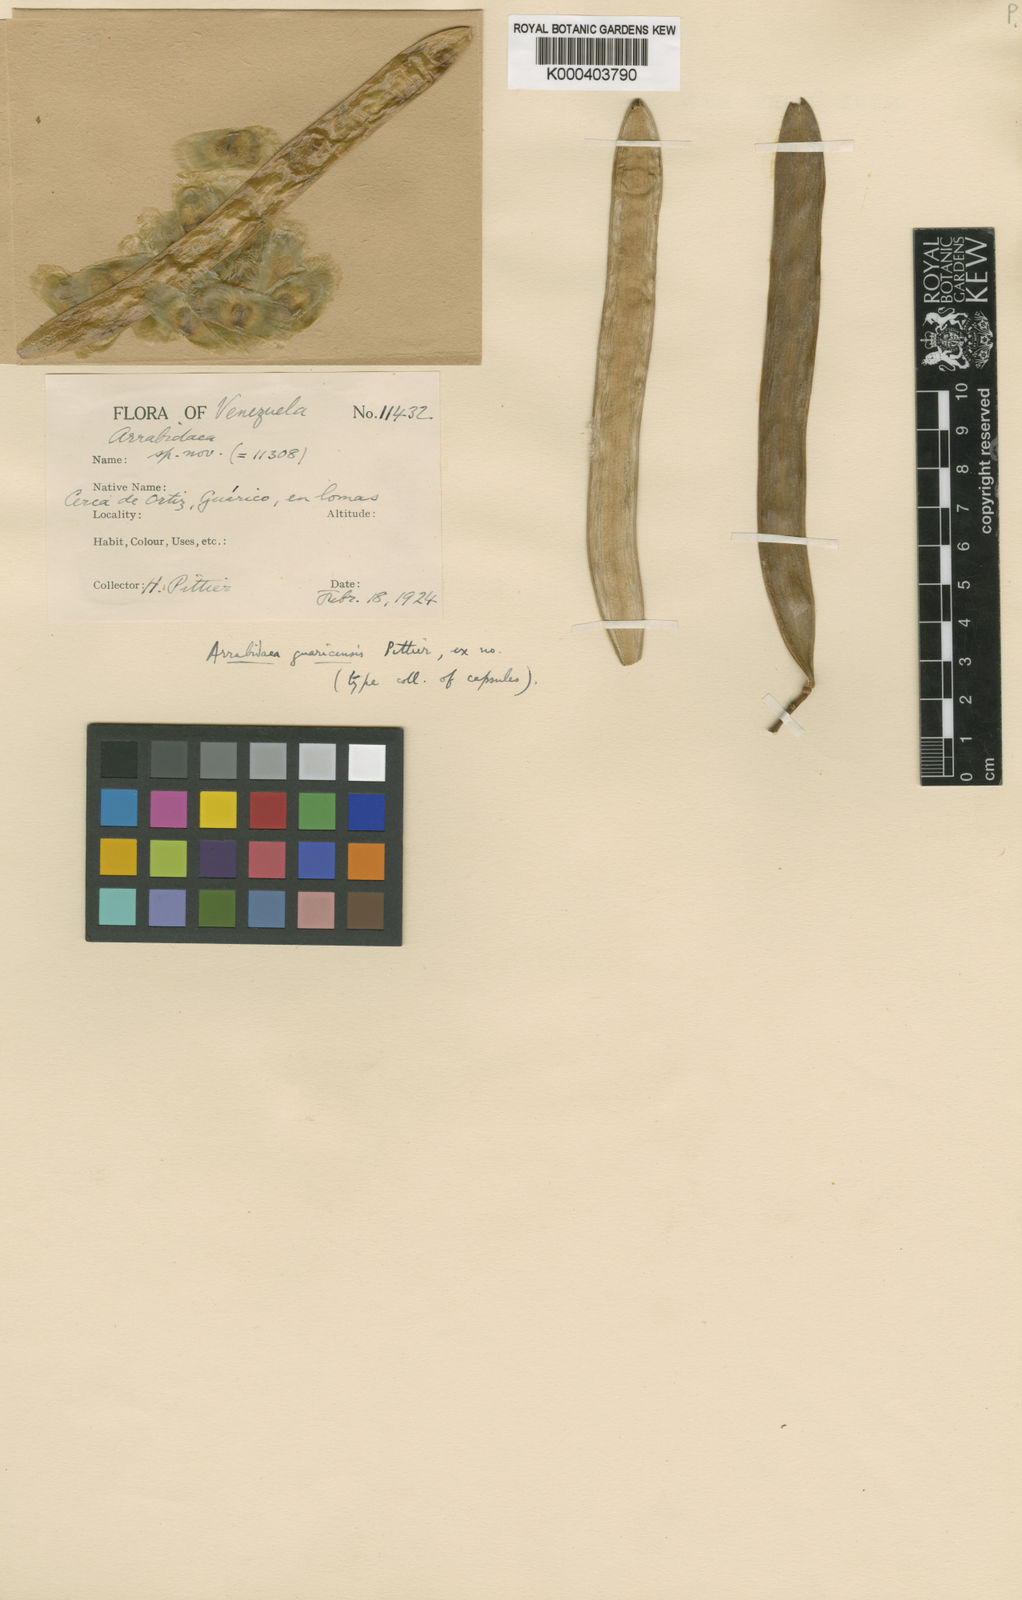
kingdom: Plantae
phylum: Tracheophyta
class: Magnoliopsida
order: Lamiales
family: Bignoniaceae
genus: Tanaecium
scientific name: Tanaecium
